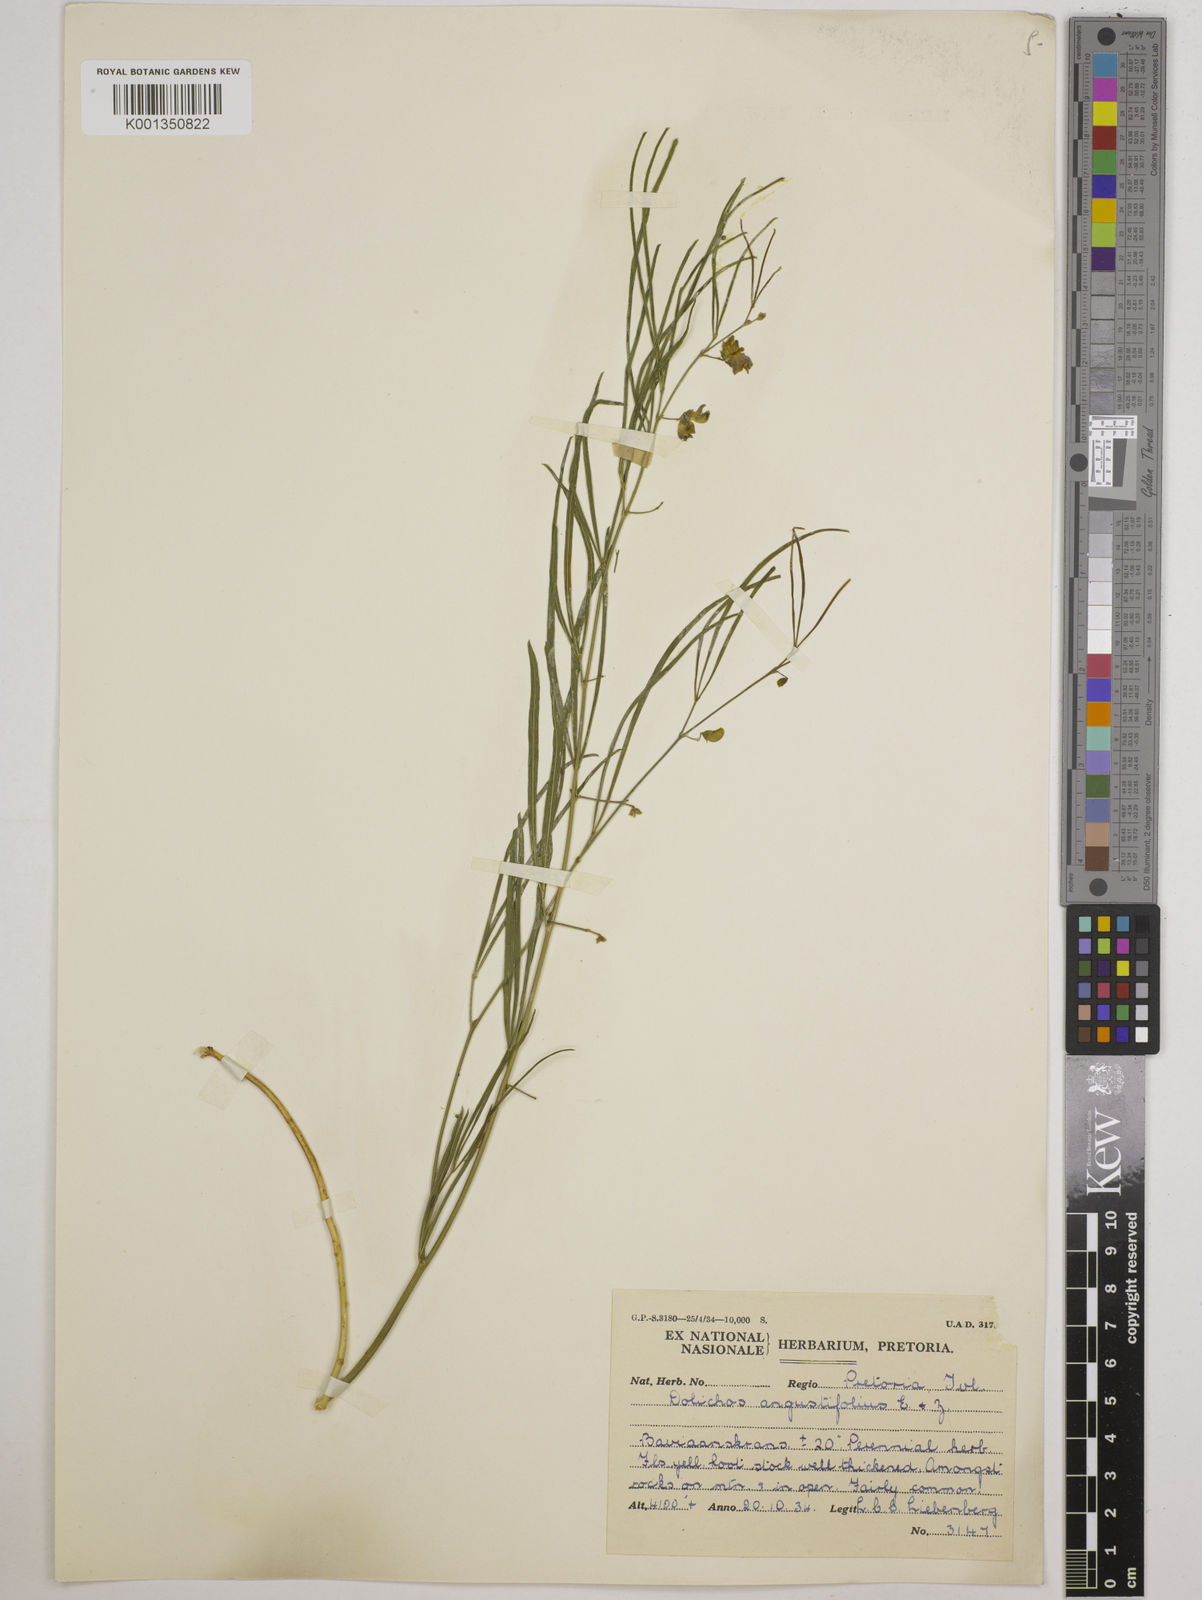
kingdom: Plantae
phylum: Tracheophyta
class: Magnoliopsida
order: Fabales
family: Fabaceae
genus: Dolichos
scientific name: Dolichos
